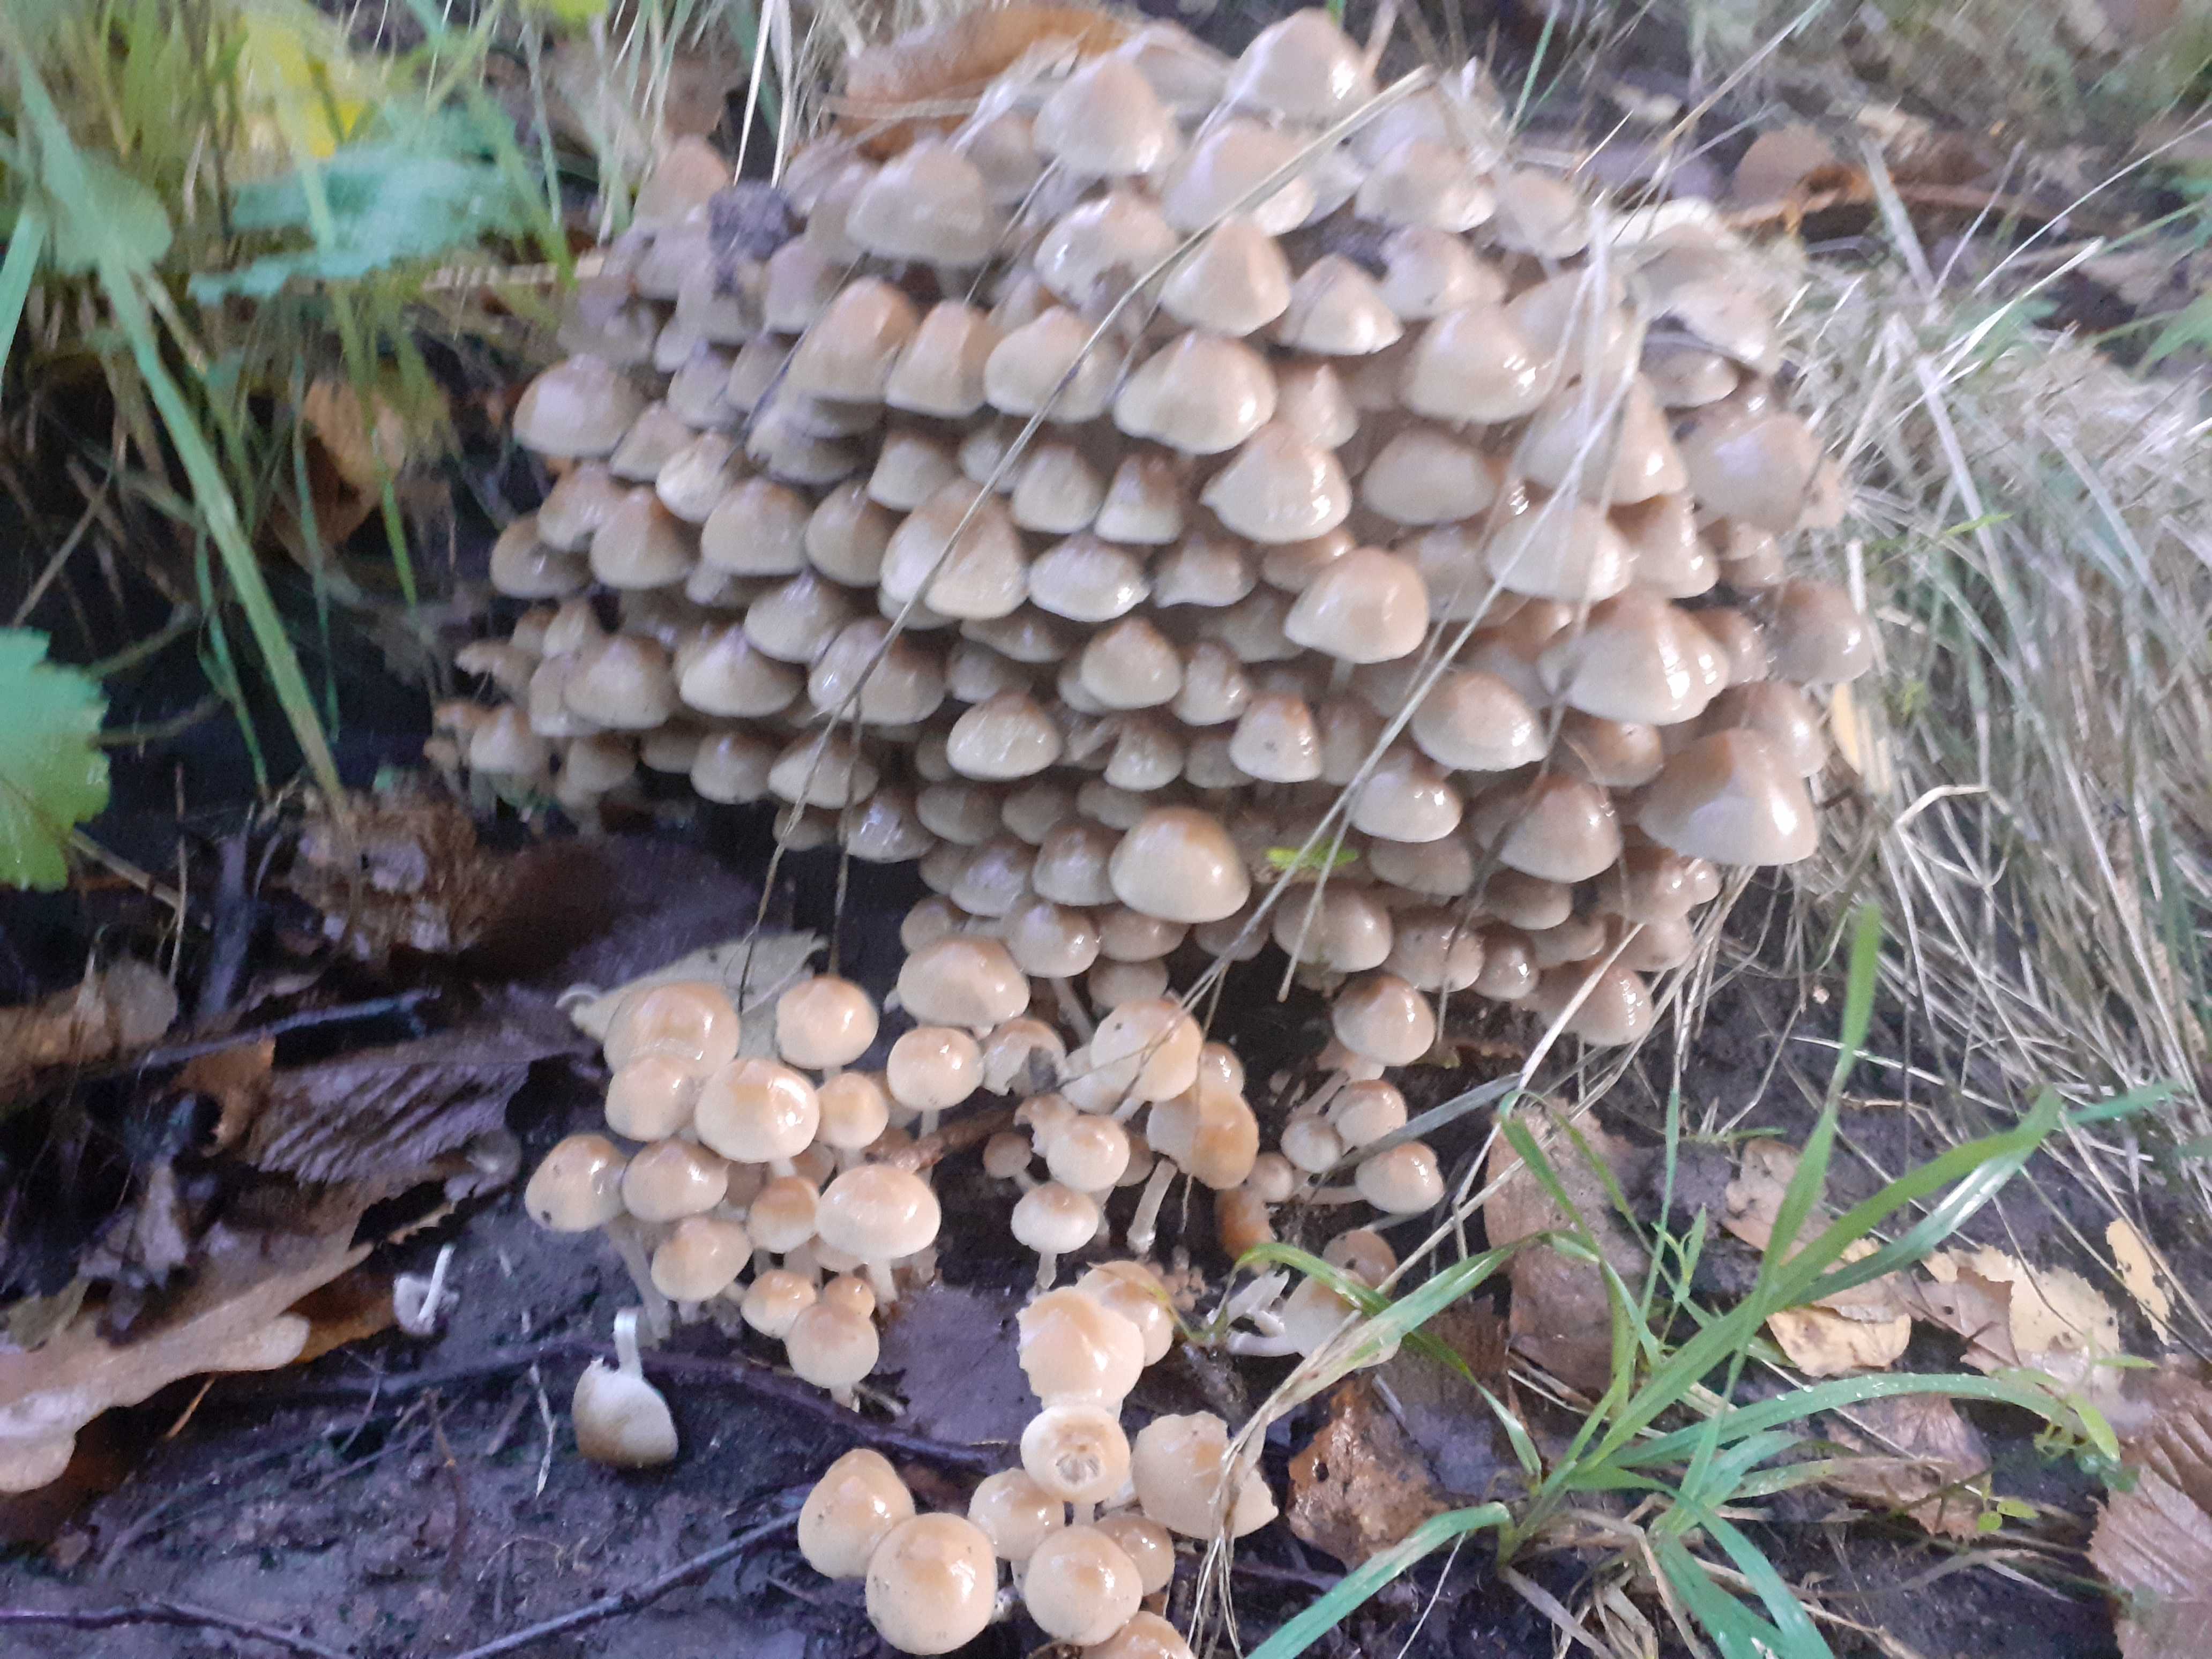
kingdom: Fungi
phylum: Basidiomycota
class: Agaricomycetes
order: Agaricales
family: Psathyrellaceae
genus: Britzelmayria
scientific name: Britzelmayria multipedata
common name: knippe-mørkhat
